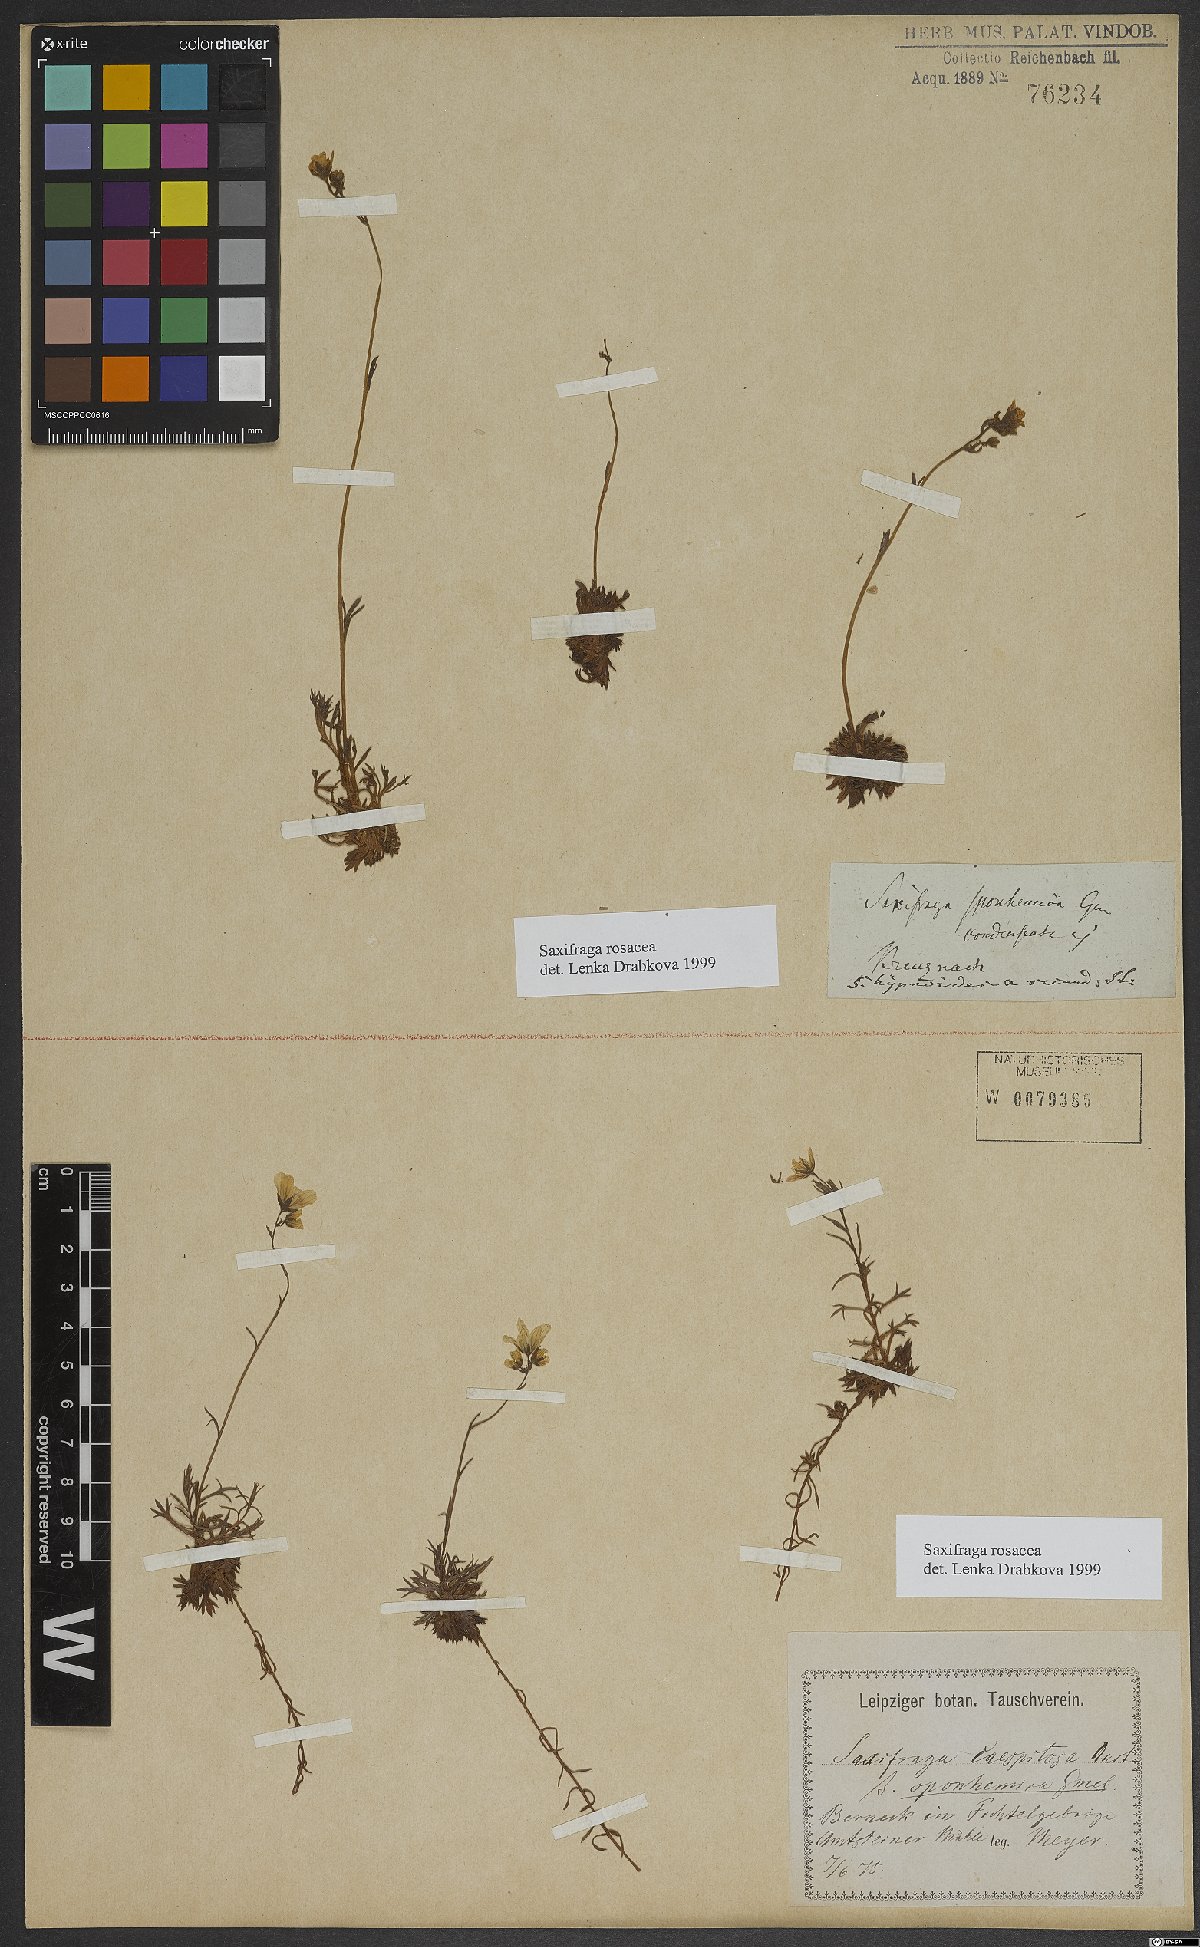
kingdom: Plantae
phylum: Tracheophyta
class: Magnoliopsida
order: Saxifragales
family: Saxifragaceae
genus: Saxifraga
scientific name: Saxifraga rosacea
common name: Irish saxifrage
